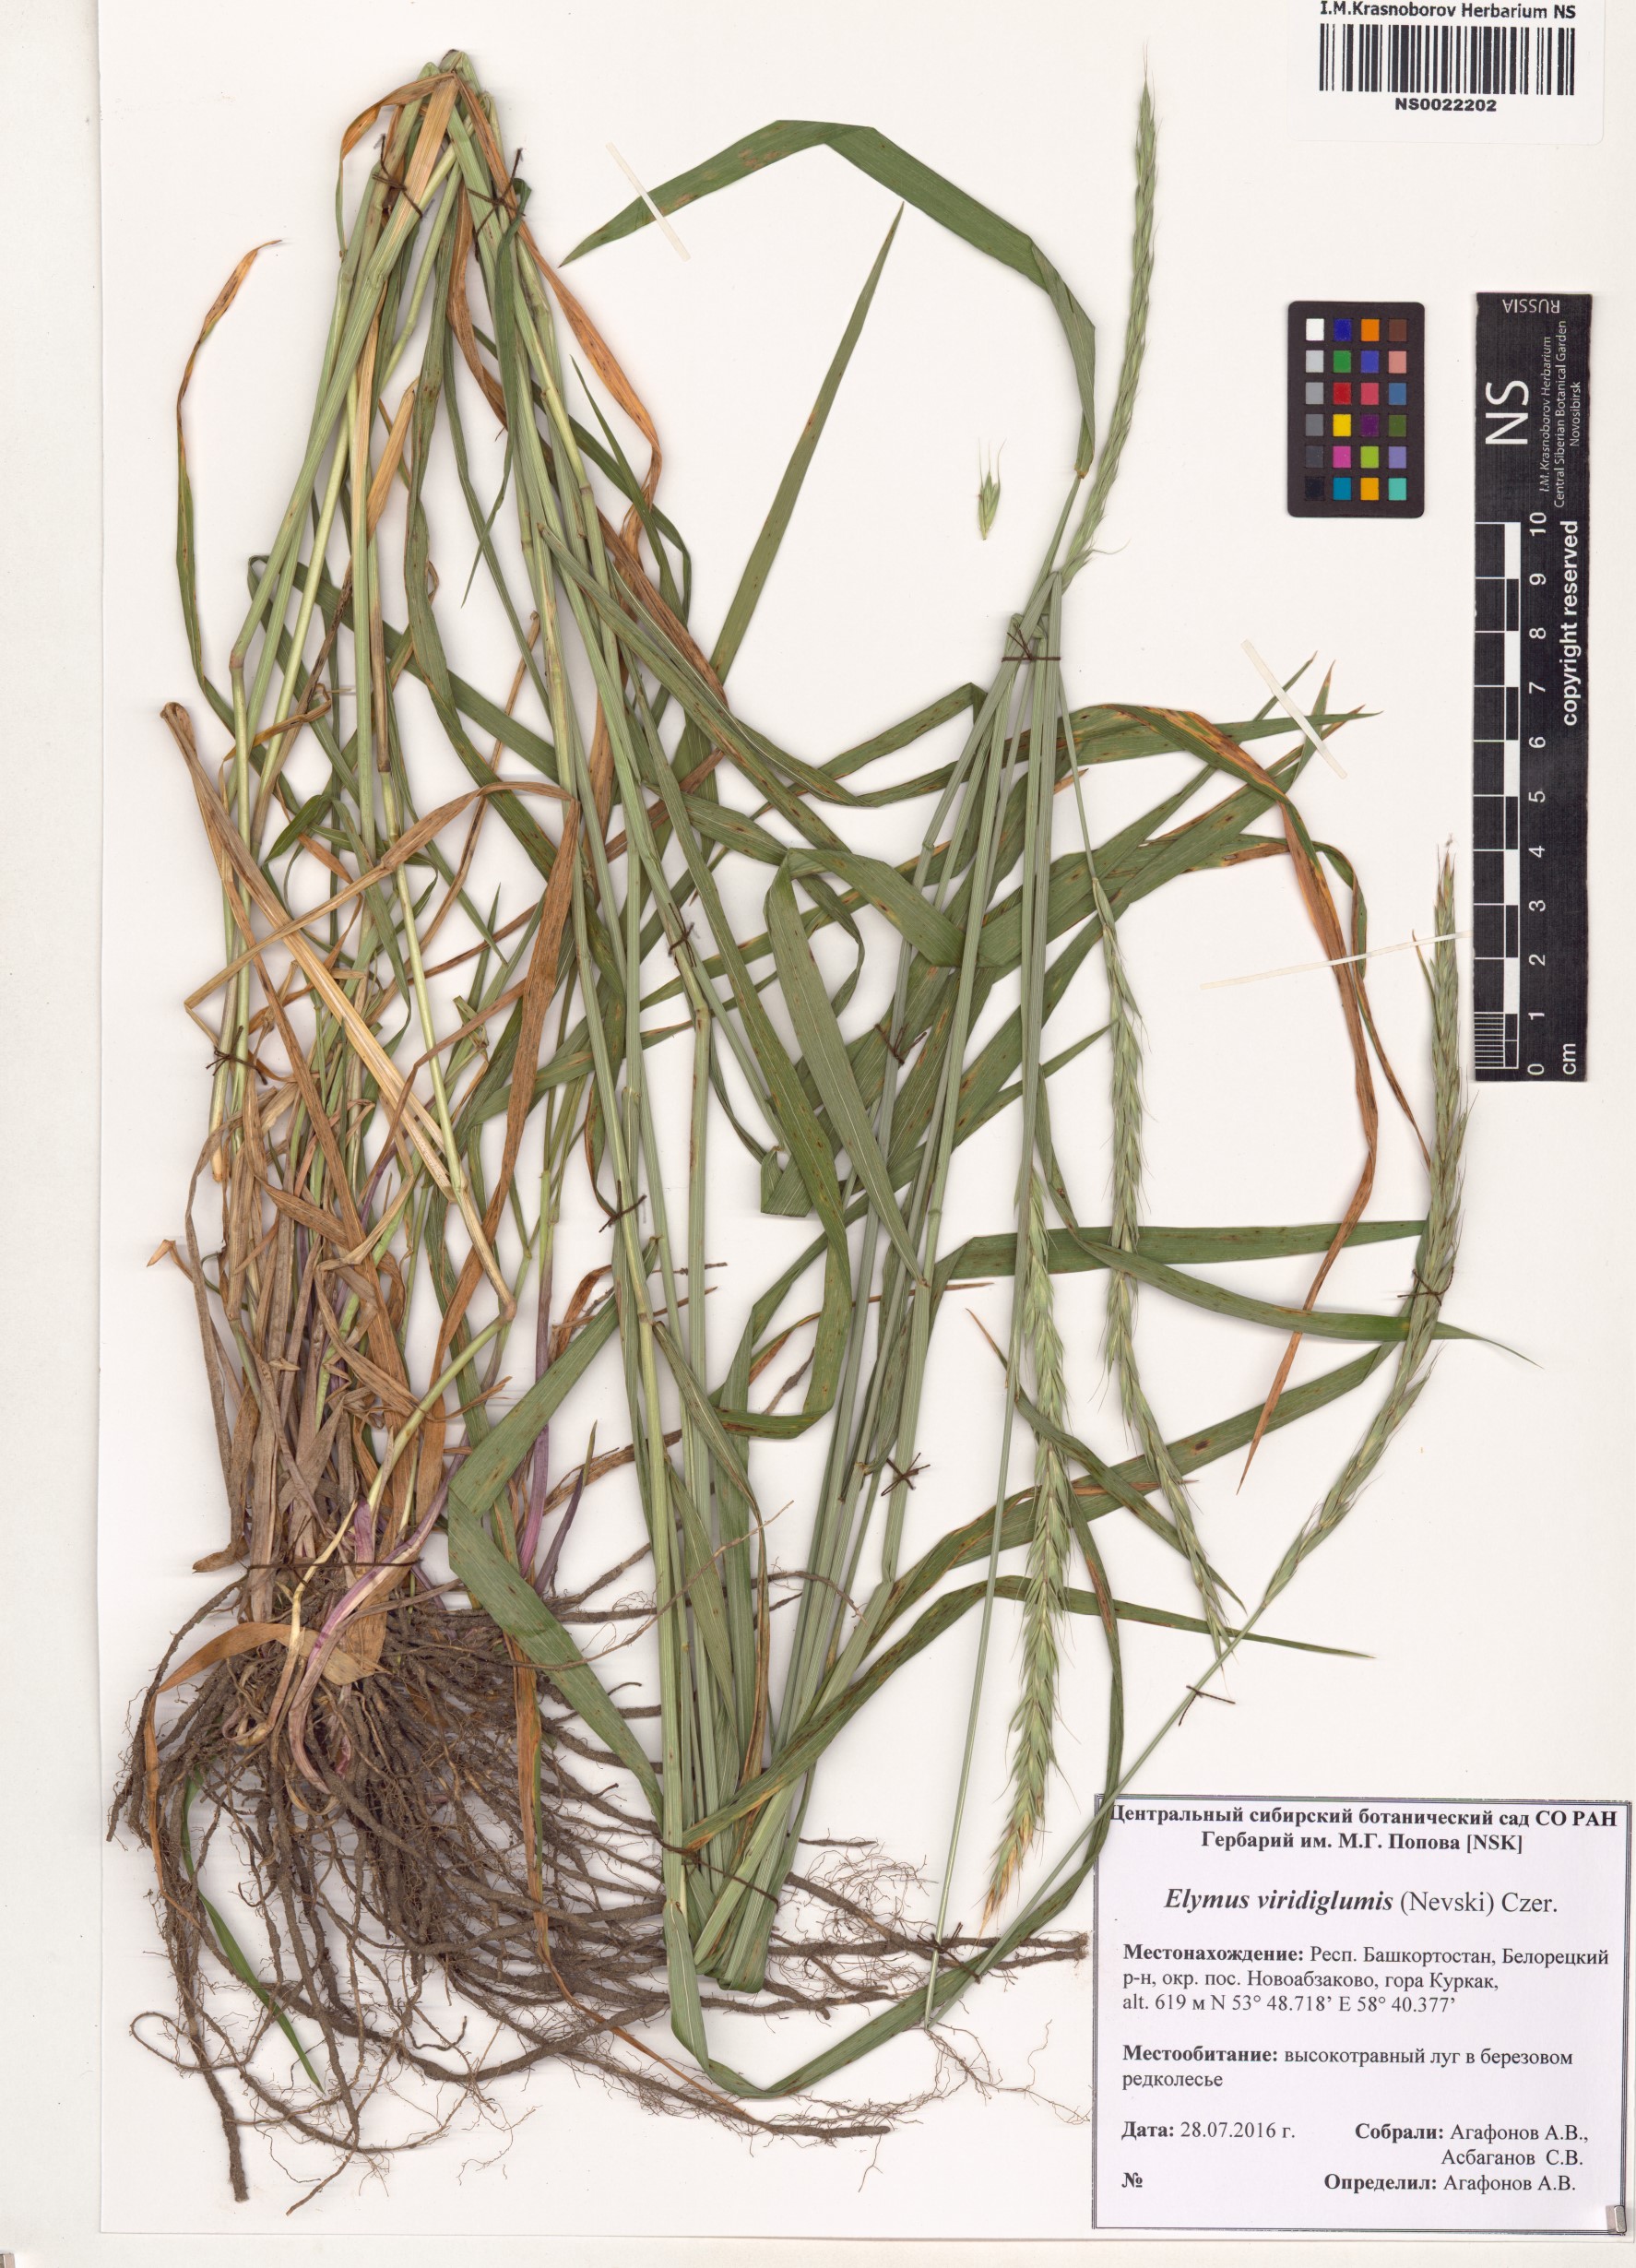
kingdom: Plantae
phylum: Tracheophyta
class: Liliopsida
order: Poales
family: Poaceae
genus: Elymus
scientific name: Elymus uralensis
